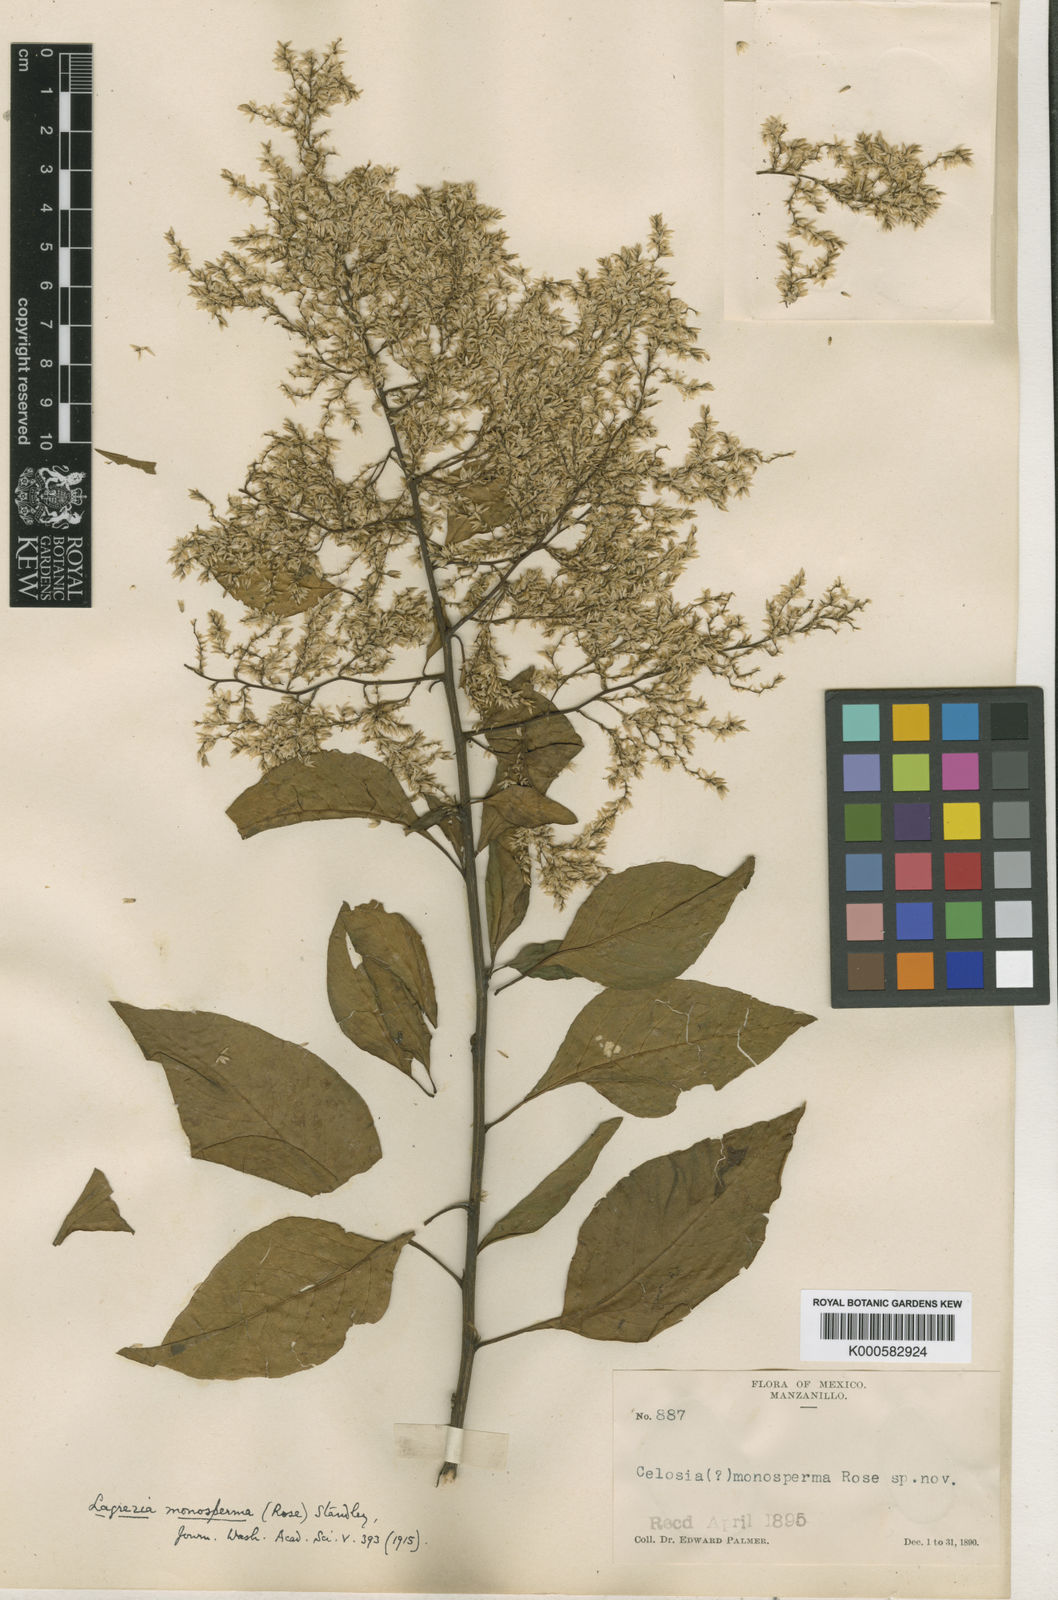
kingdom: Plantae
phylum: Tracheophyta
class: Magnoliopsida
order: Caryophyllales
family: Amaranthaceae
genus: Celosia
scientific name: Celosia monosperma
